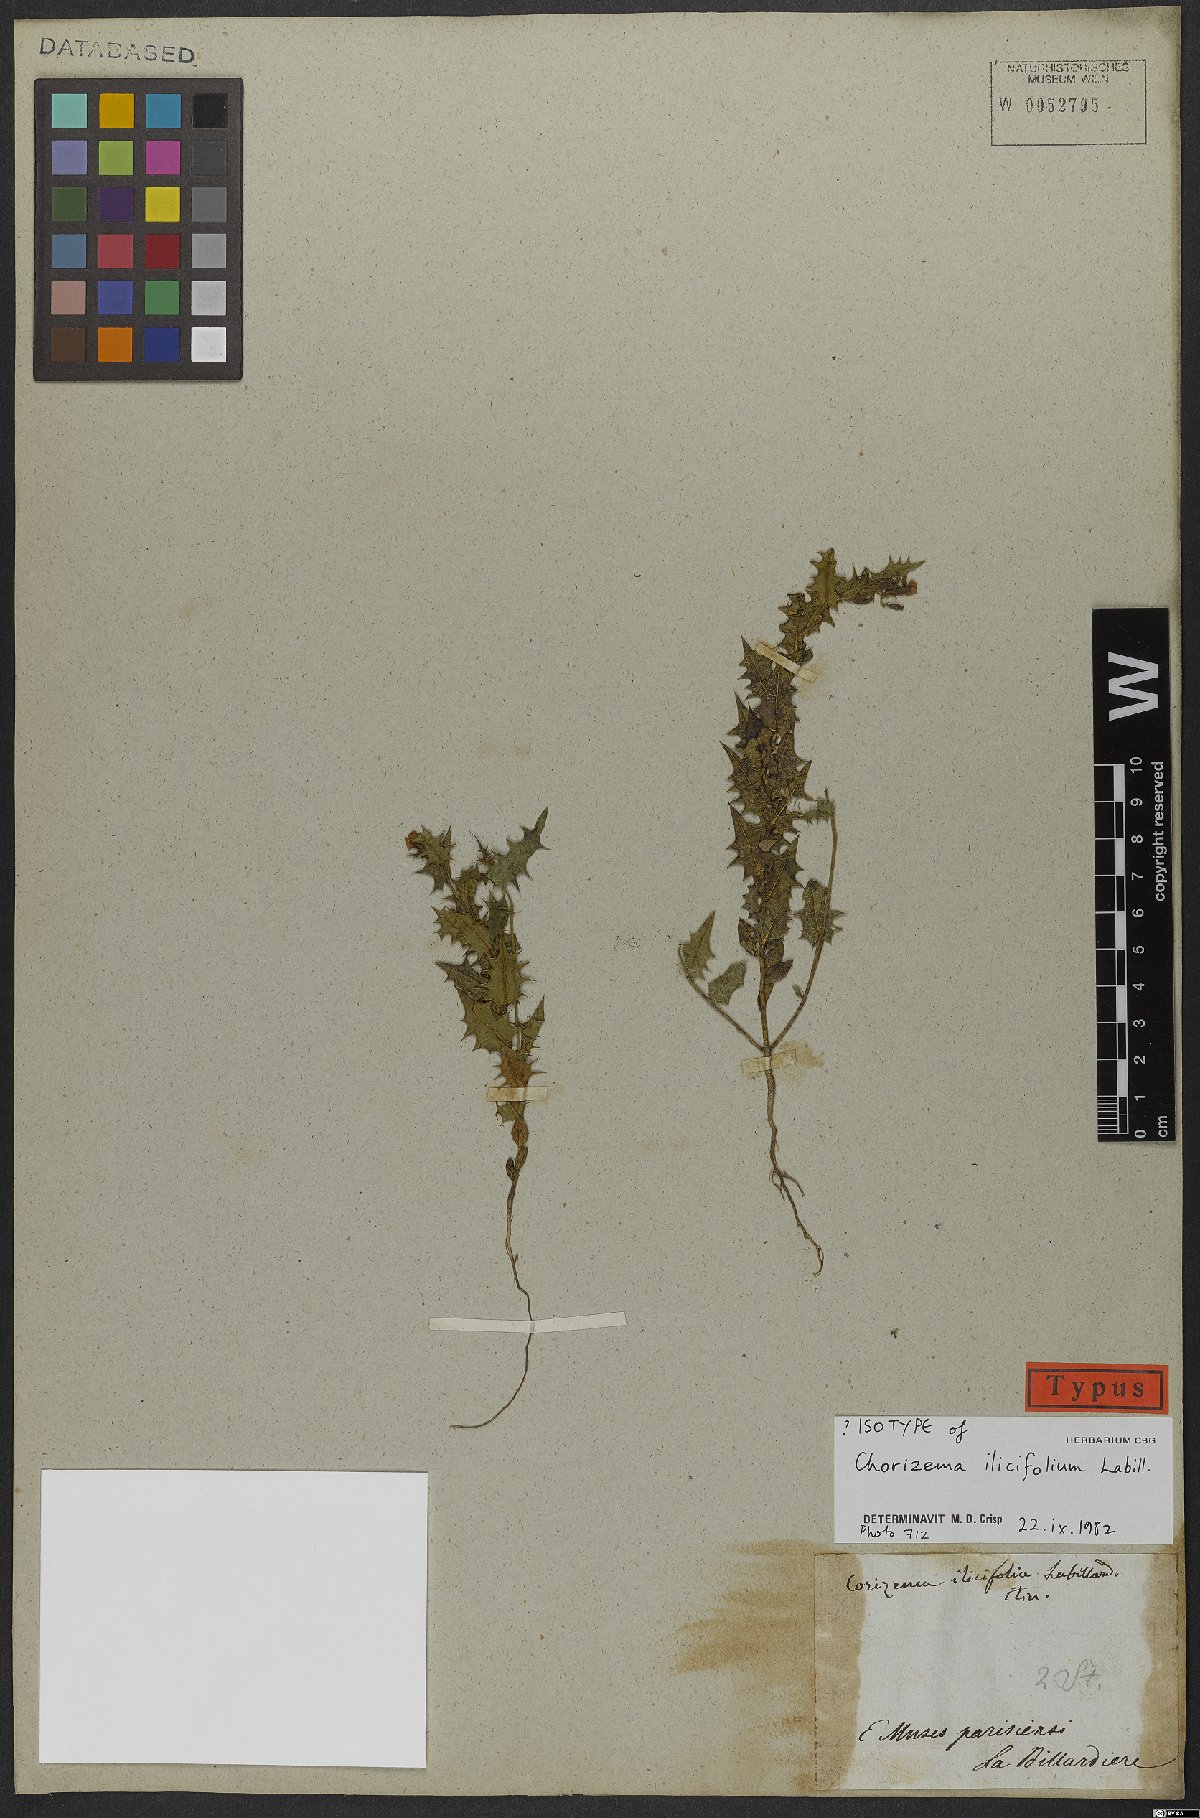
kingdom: Plantae
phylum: Tracheophyta
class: Magnoliopsida
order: Fabales
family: Fabaceae
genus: Chorizema
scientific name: Chorizema ilicifolium
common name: Holly flame-pea
